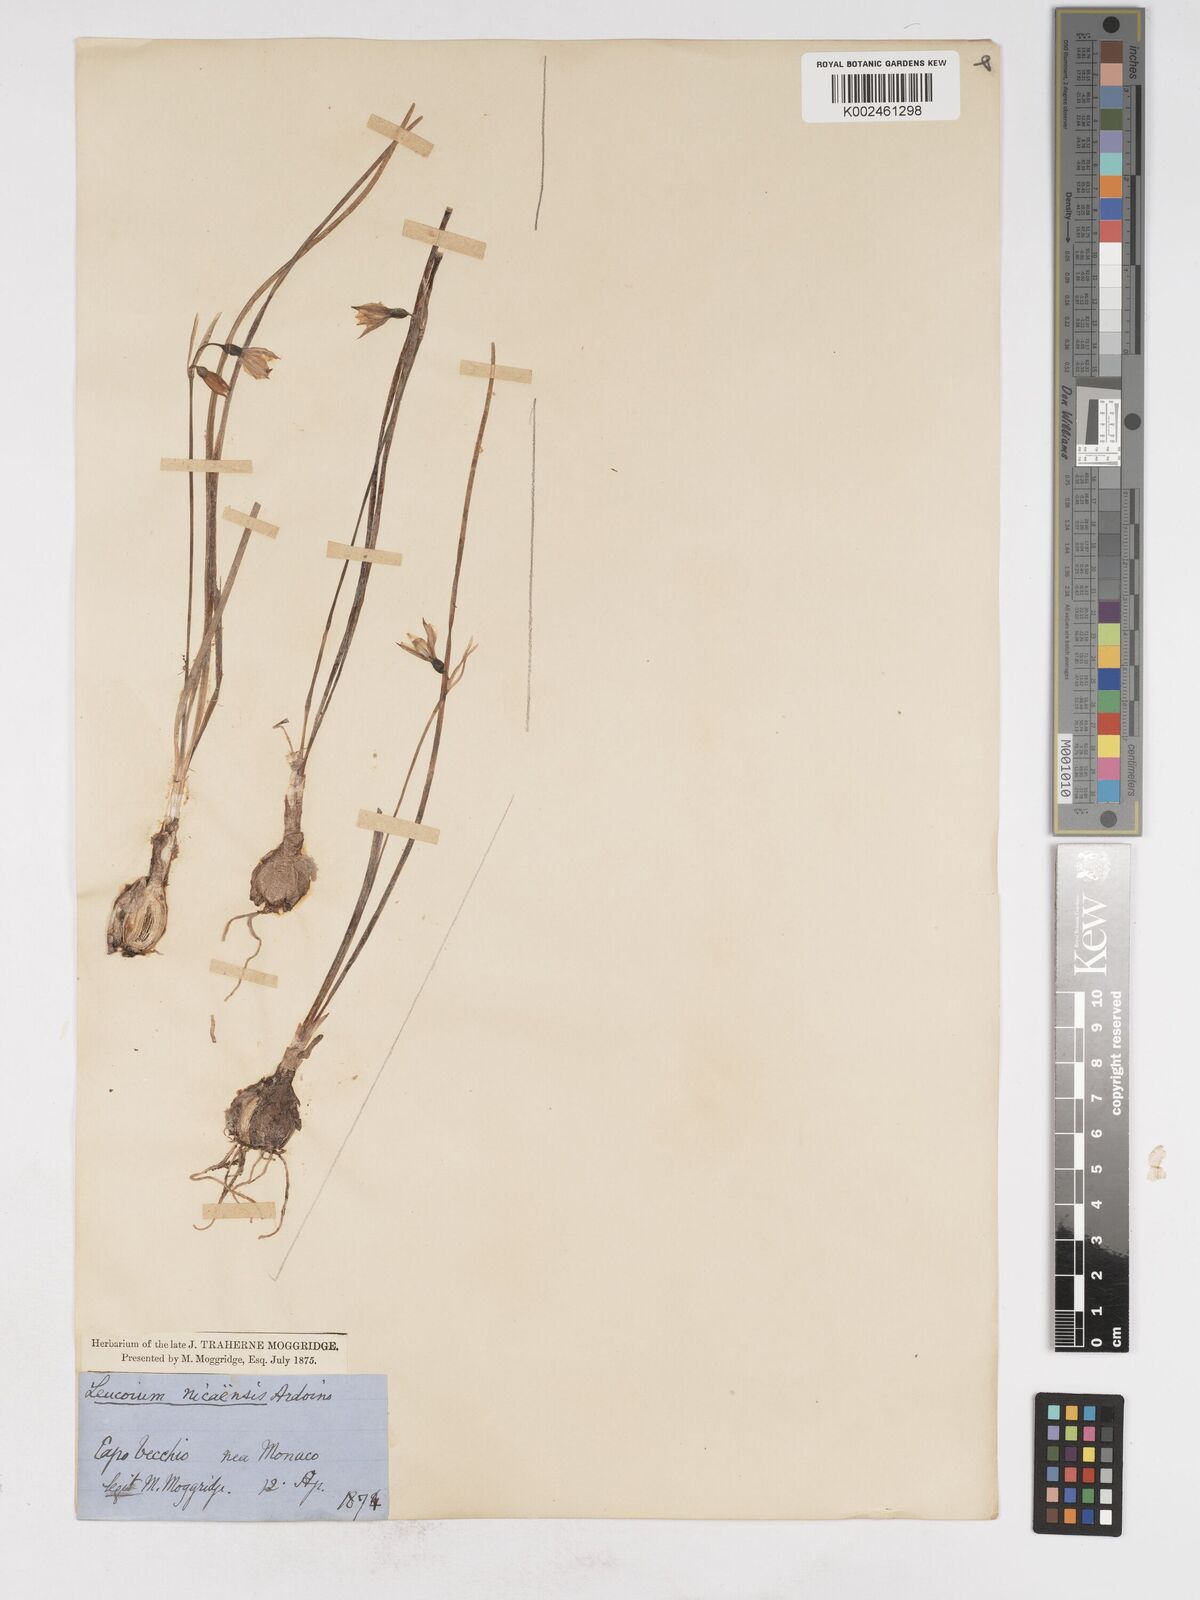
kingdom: Plantae
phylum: Tracheophyta
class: Liliopsida
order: Asparagales
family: Amaryllidaceae
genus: Acis
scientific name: Acis nicaeensis
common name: French snowflake
